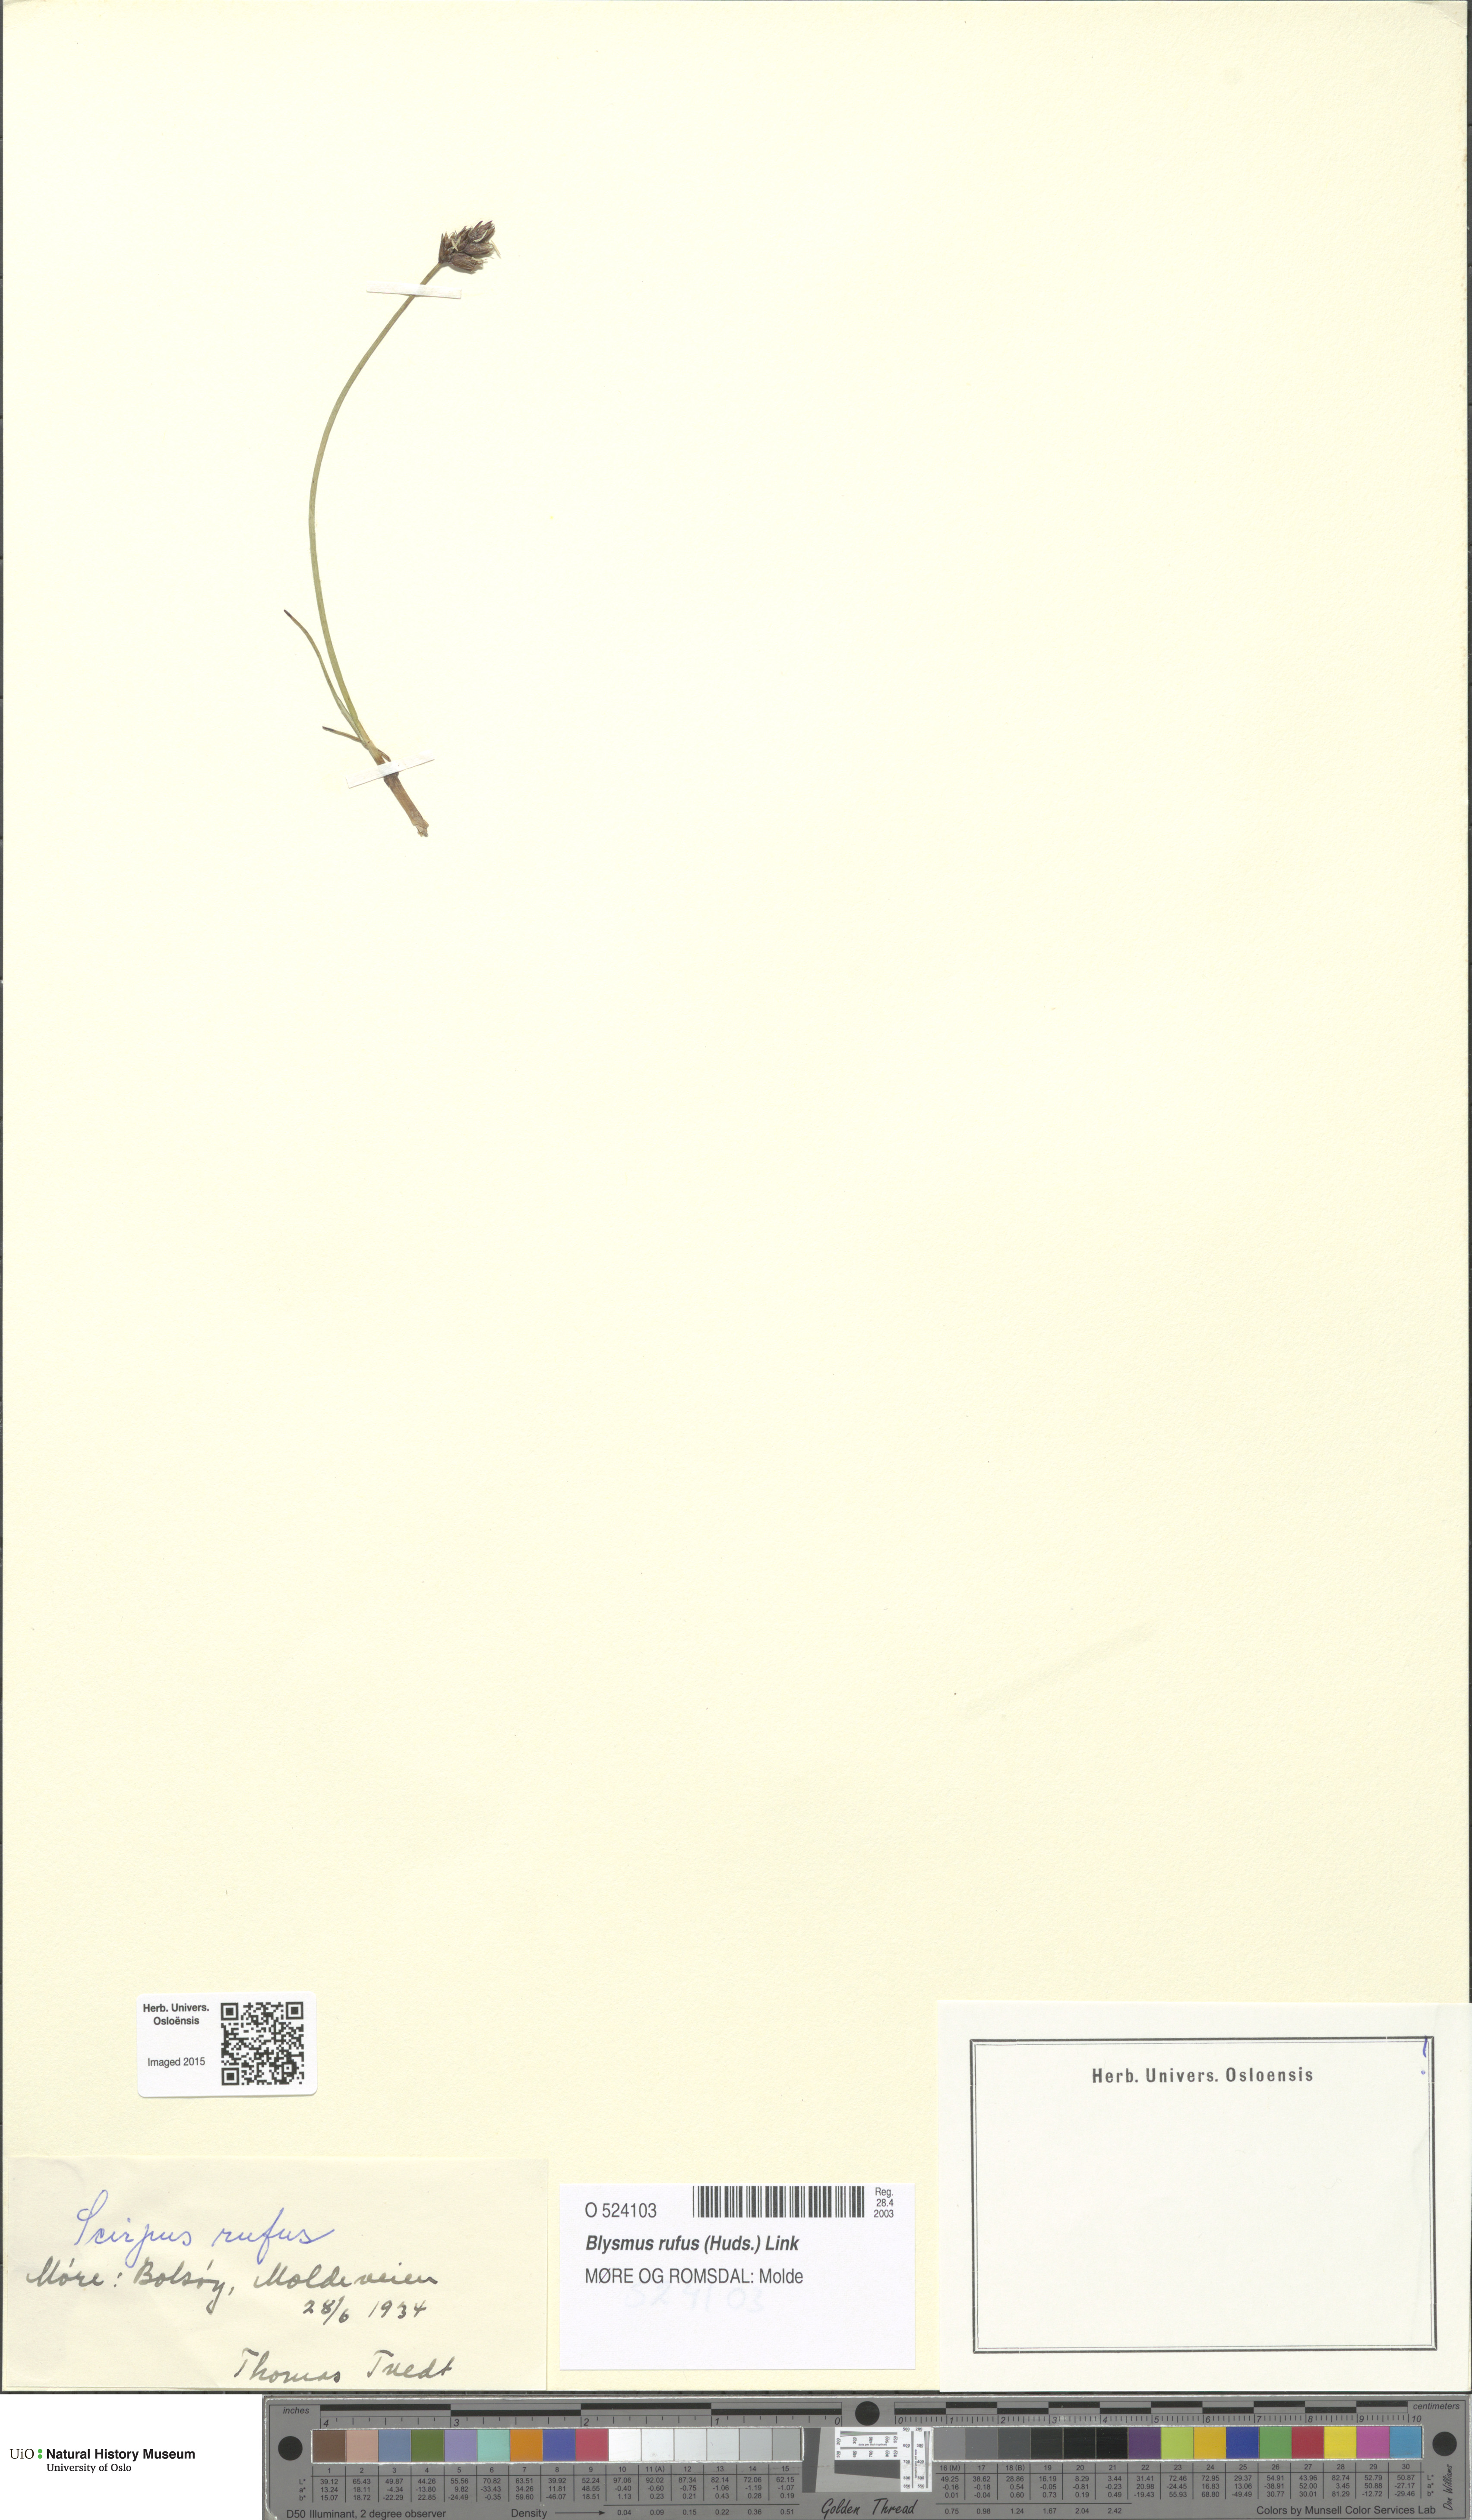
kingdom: Plantae
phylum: Tracheophyta
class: Liliopsida
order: Poales
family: Cyperaceae
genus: Blysmus
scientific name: Blysmus rufus
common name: Saltmarsh flat-sedge
